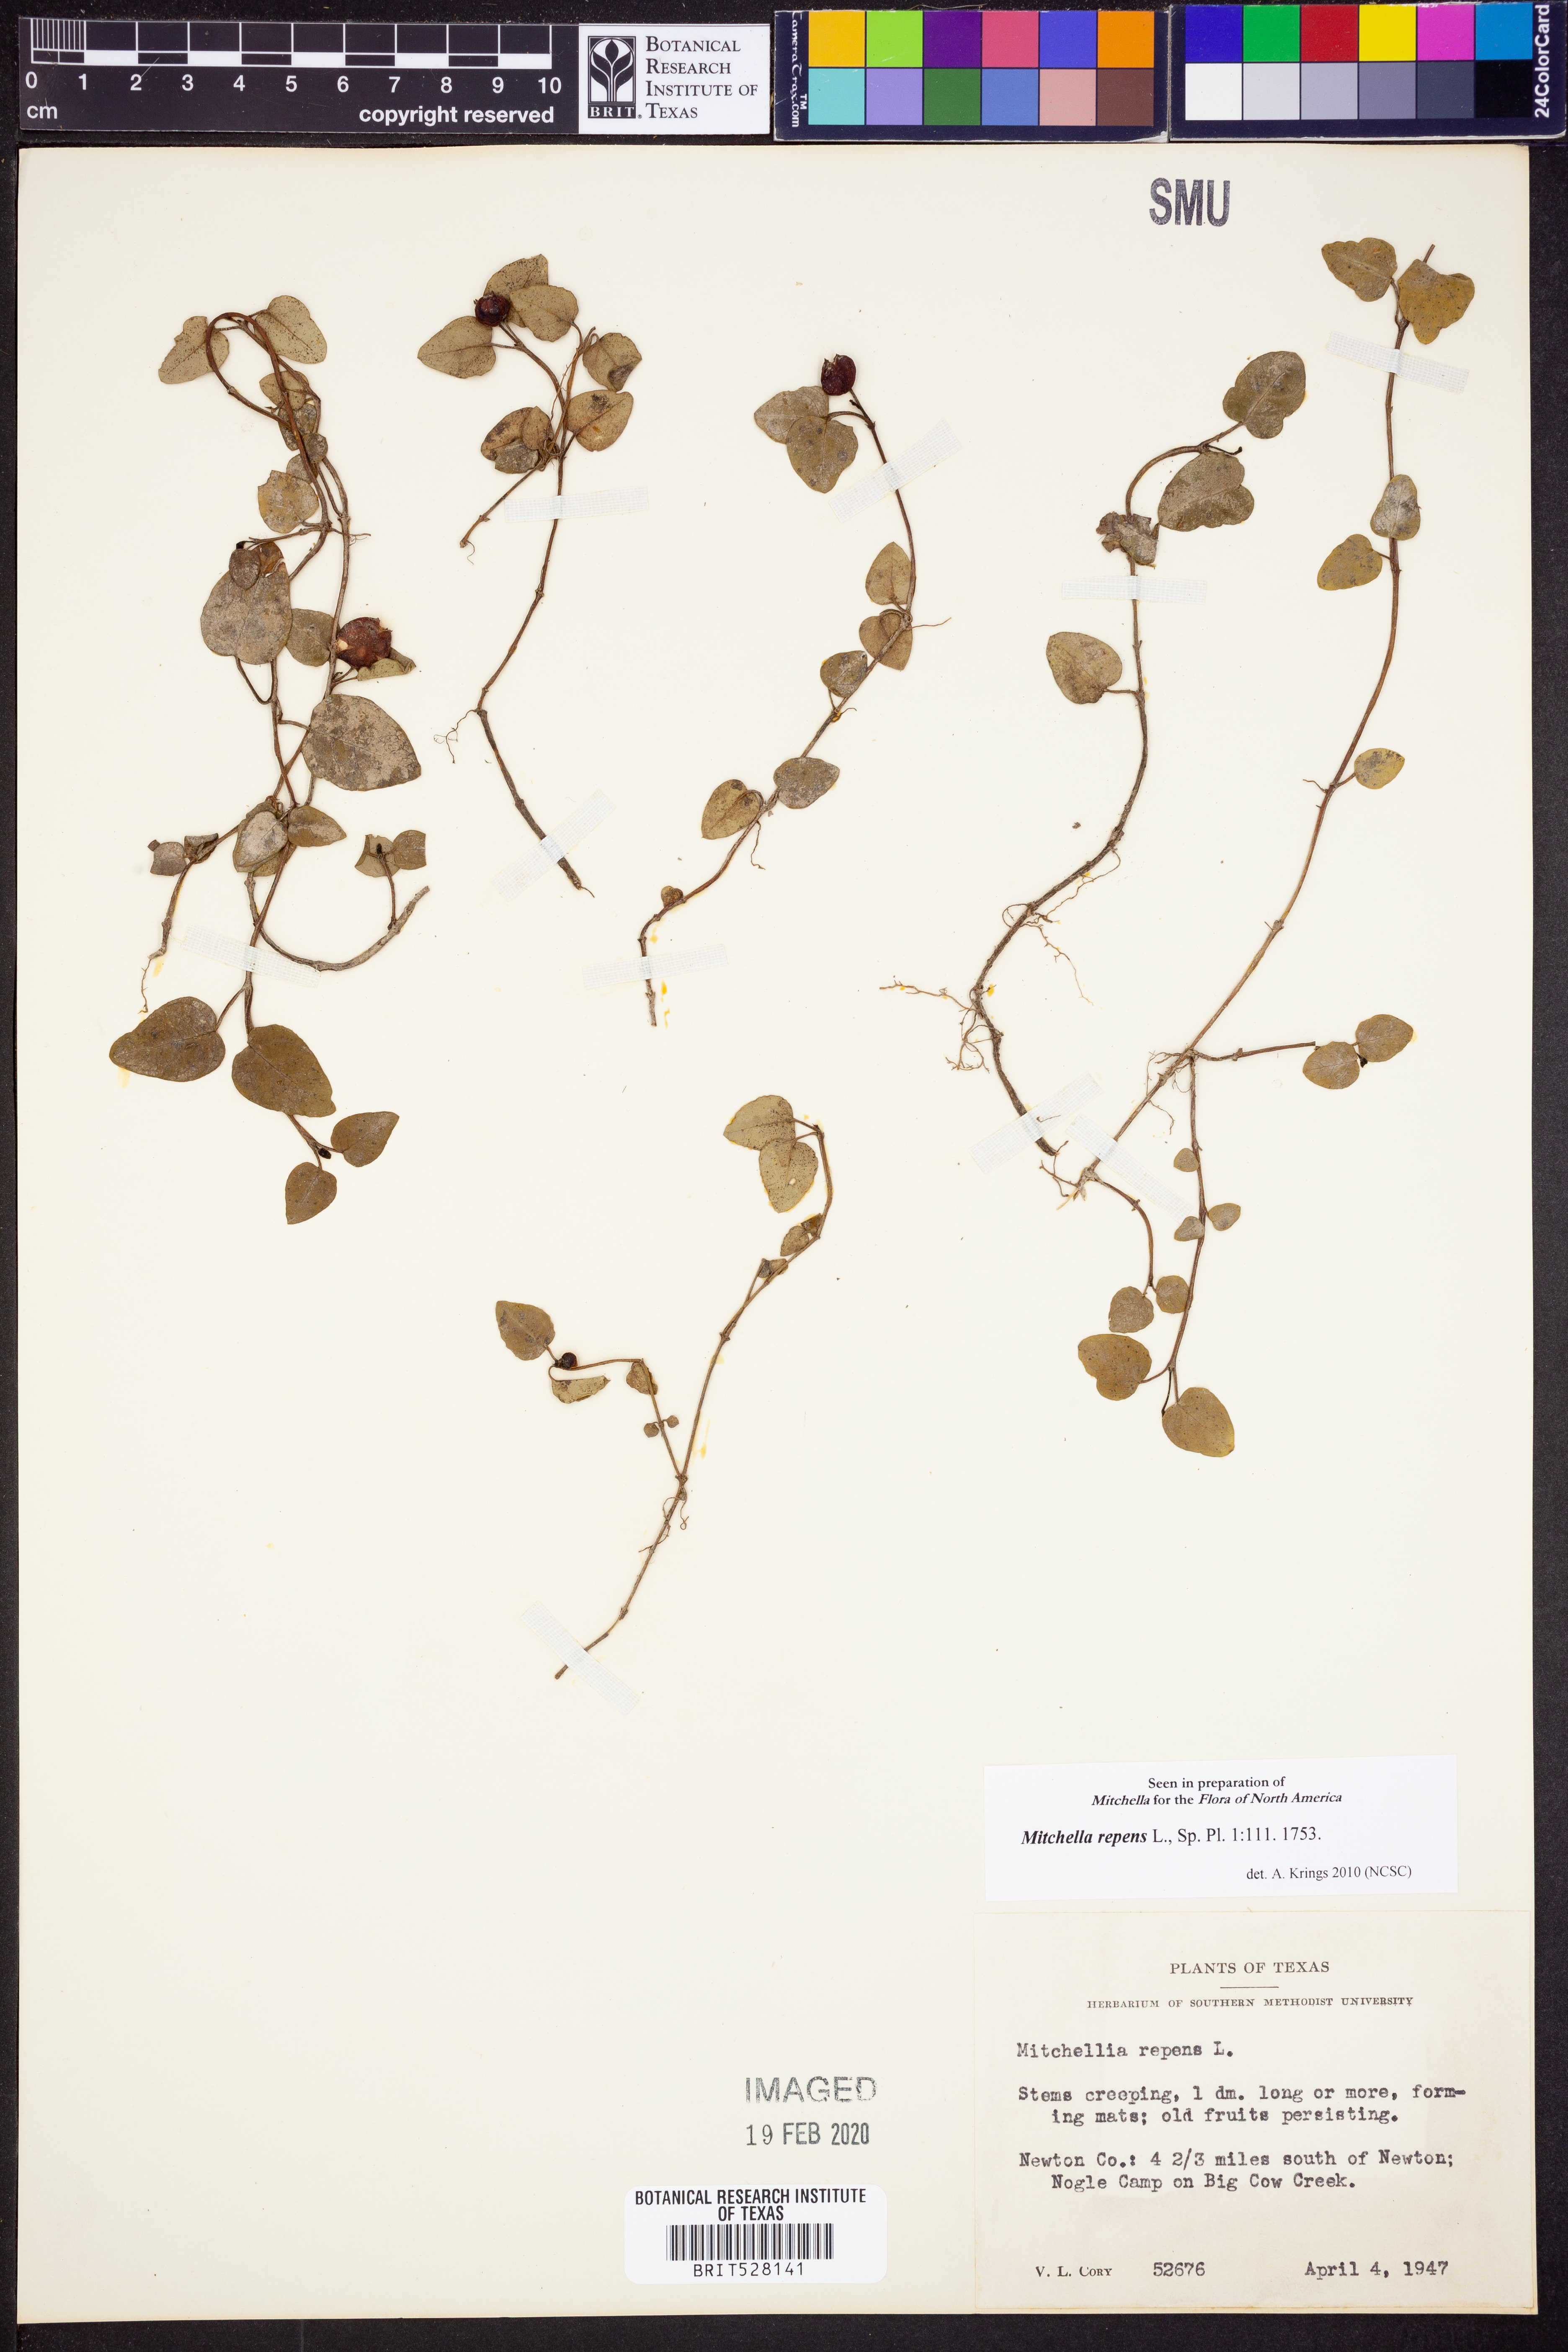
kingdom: Plantae
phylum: Tracheophyta
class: Magnoliopsida
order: Gentianales
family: Rubiaceae
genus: Mitchella
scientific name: Mitchella repens
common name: Partridge-berry
